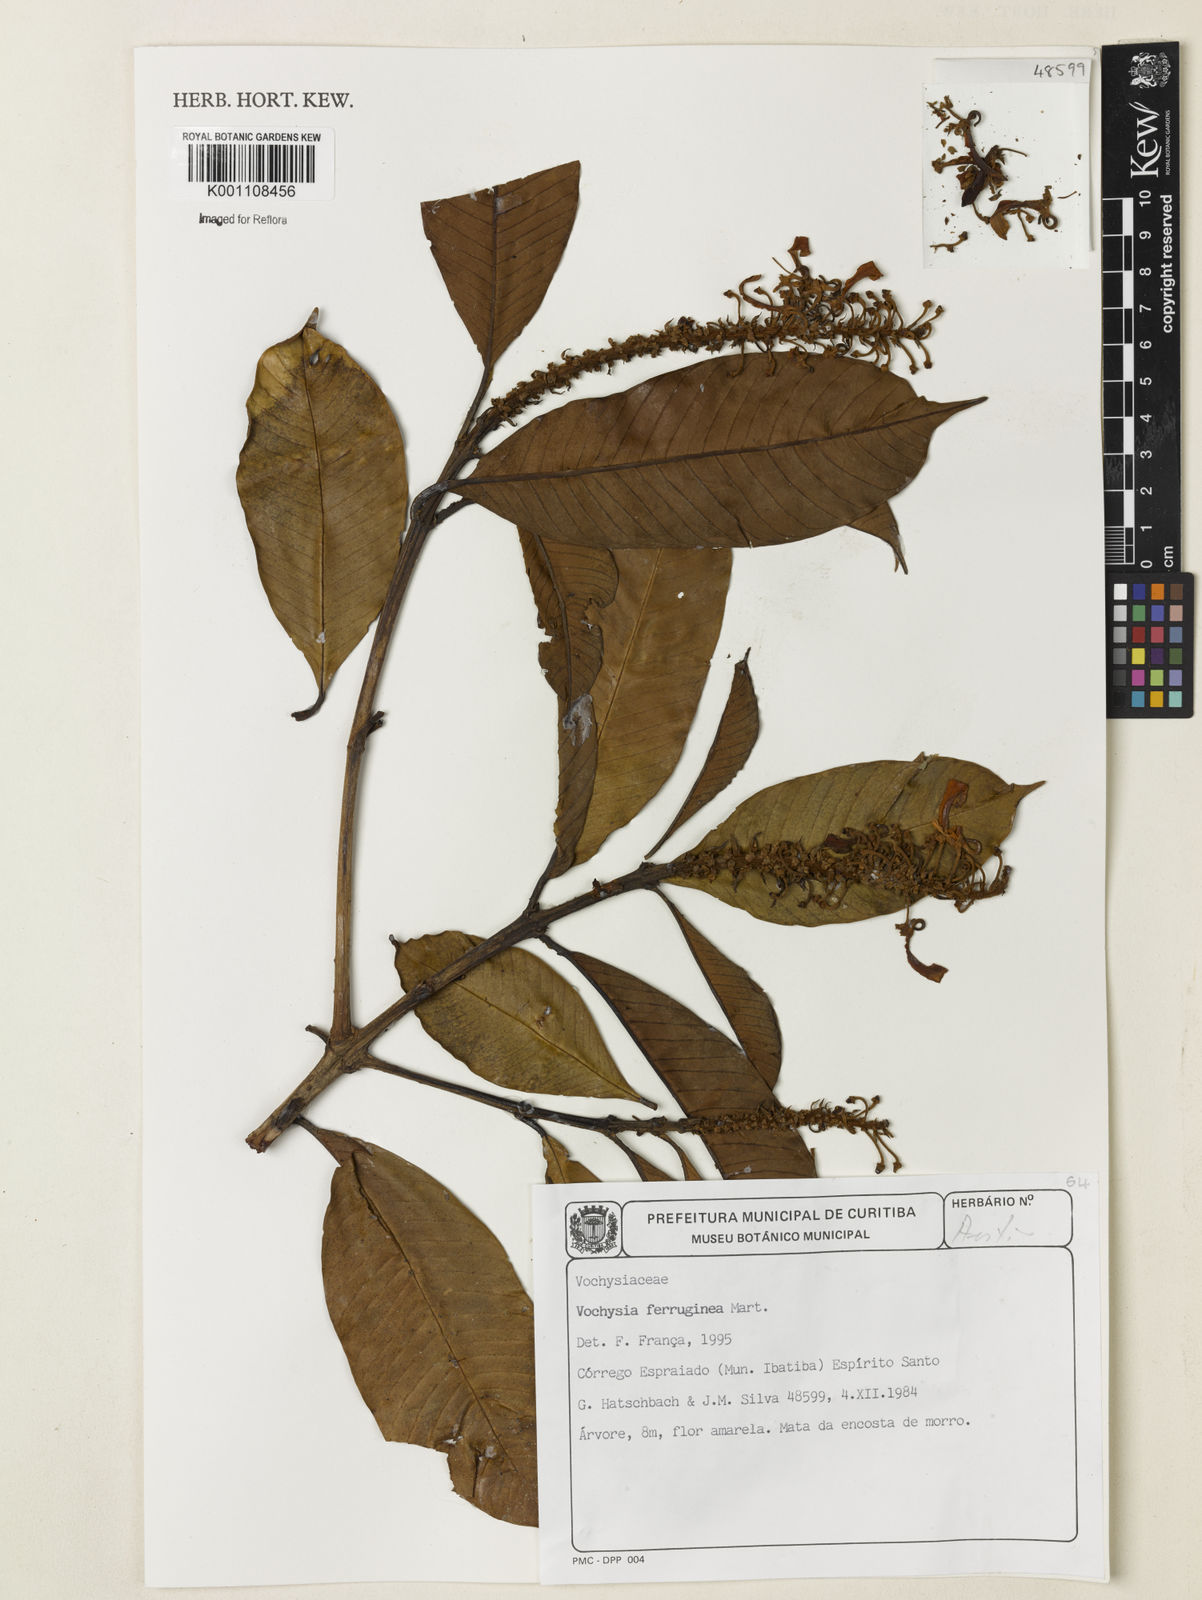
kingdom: Plantae
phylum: Tracheophyta
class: Magnoliopsida
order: Myrtales
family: Vochysiaceae
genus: Vochysia
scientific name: Vochysia ferruginea
